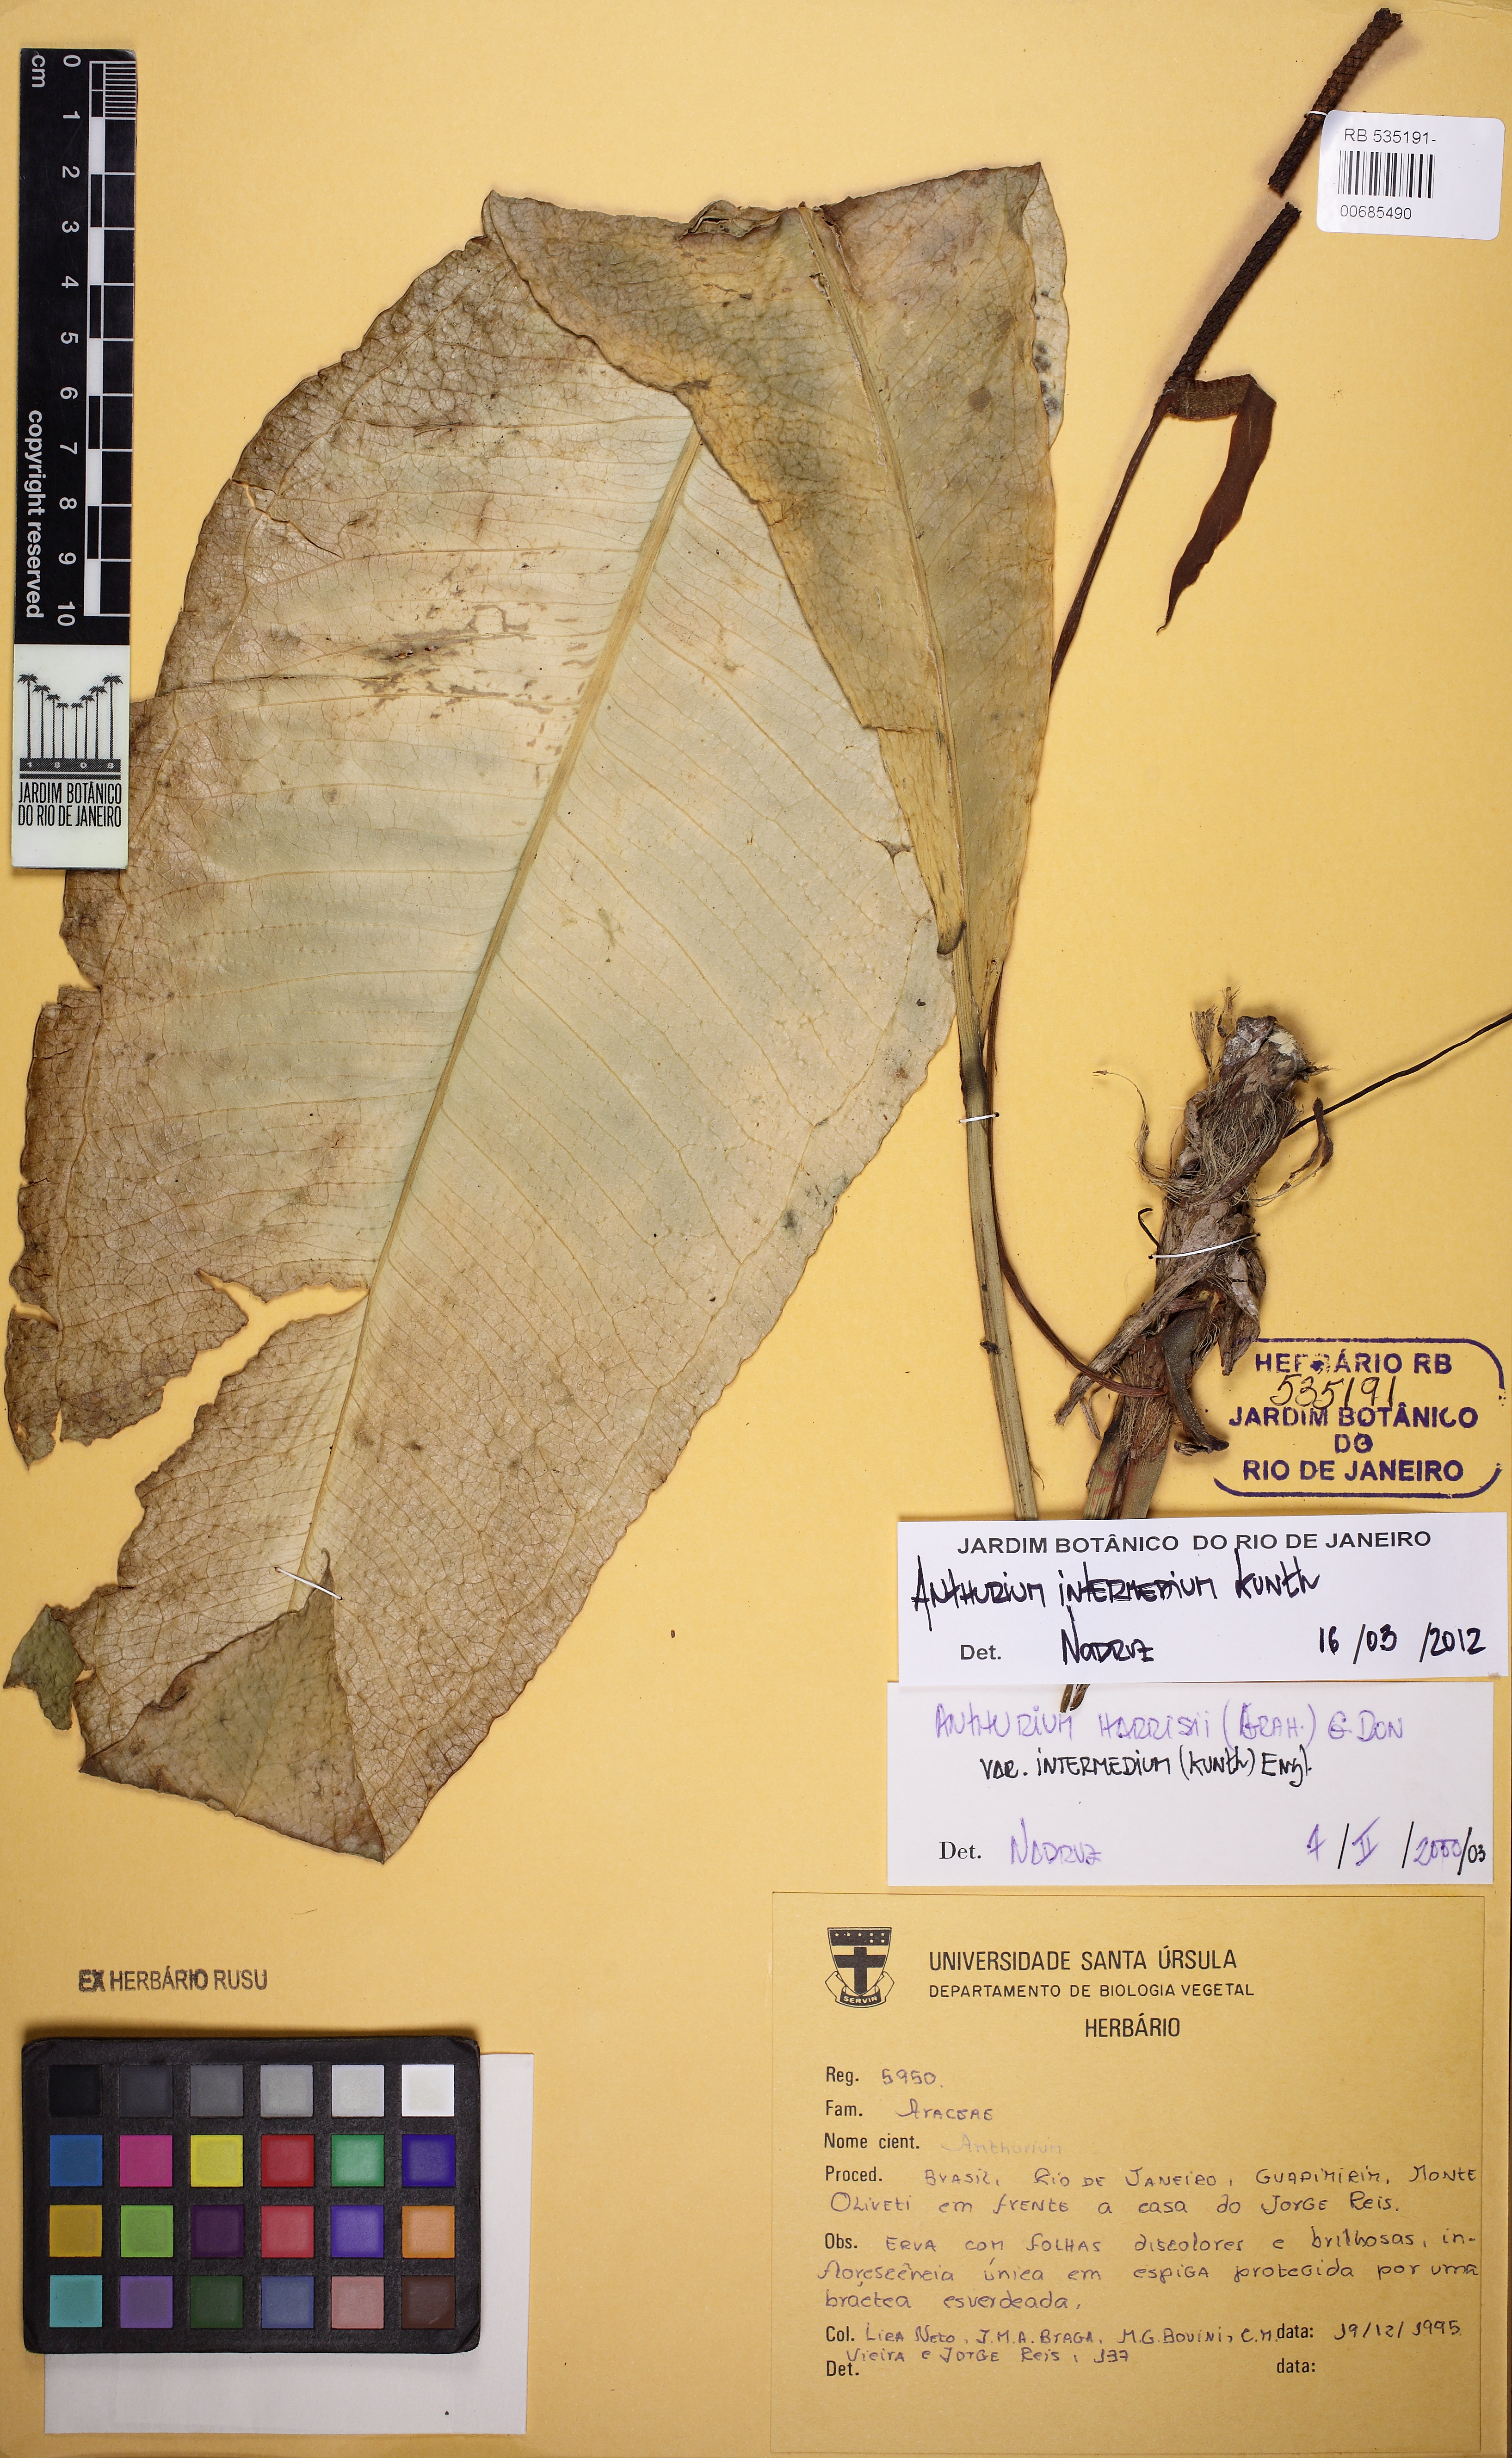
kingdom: Plantae
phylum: Tracheophyta
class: Liliopsida
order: Alismatales
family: Araceae
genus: Anthurium
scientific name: Anthurium intermedium
